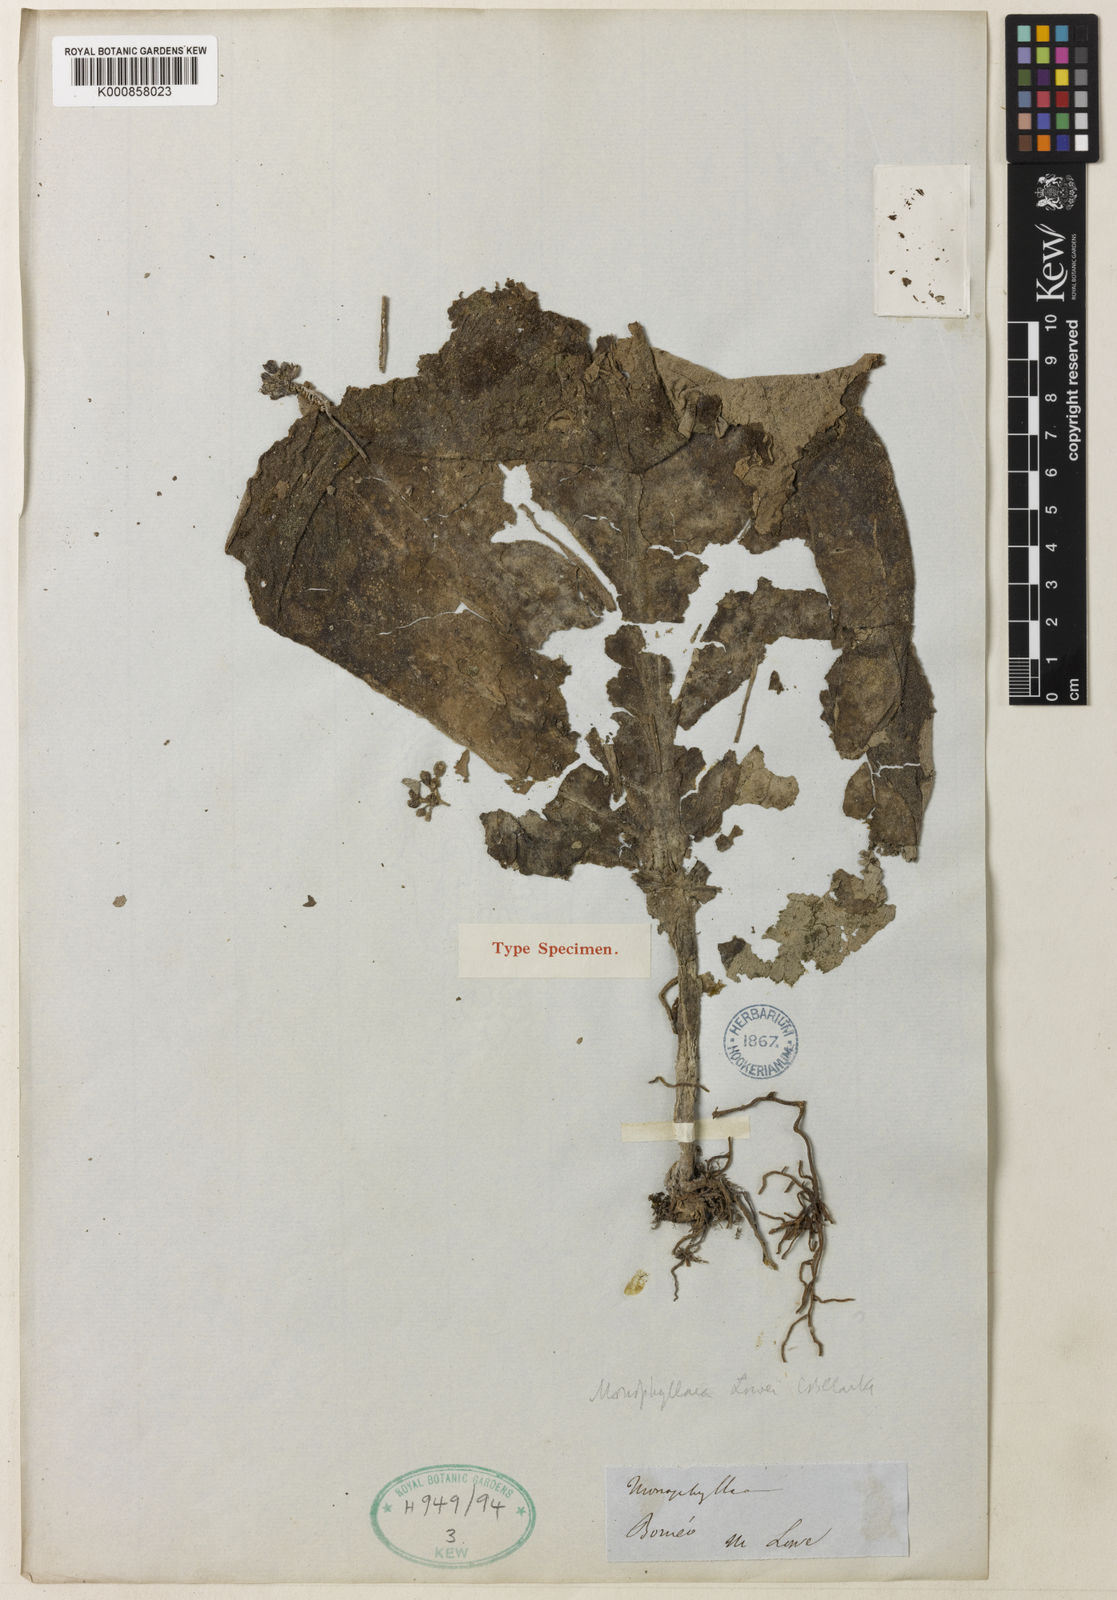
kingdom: Plantae
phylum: Tracheophyta
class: Magnoliopsida
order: Lamiales
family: Gesneriaceae
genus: Monophyllaea
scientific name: Monophyllaea glauca
